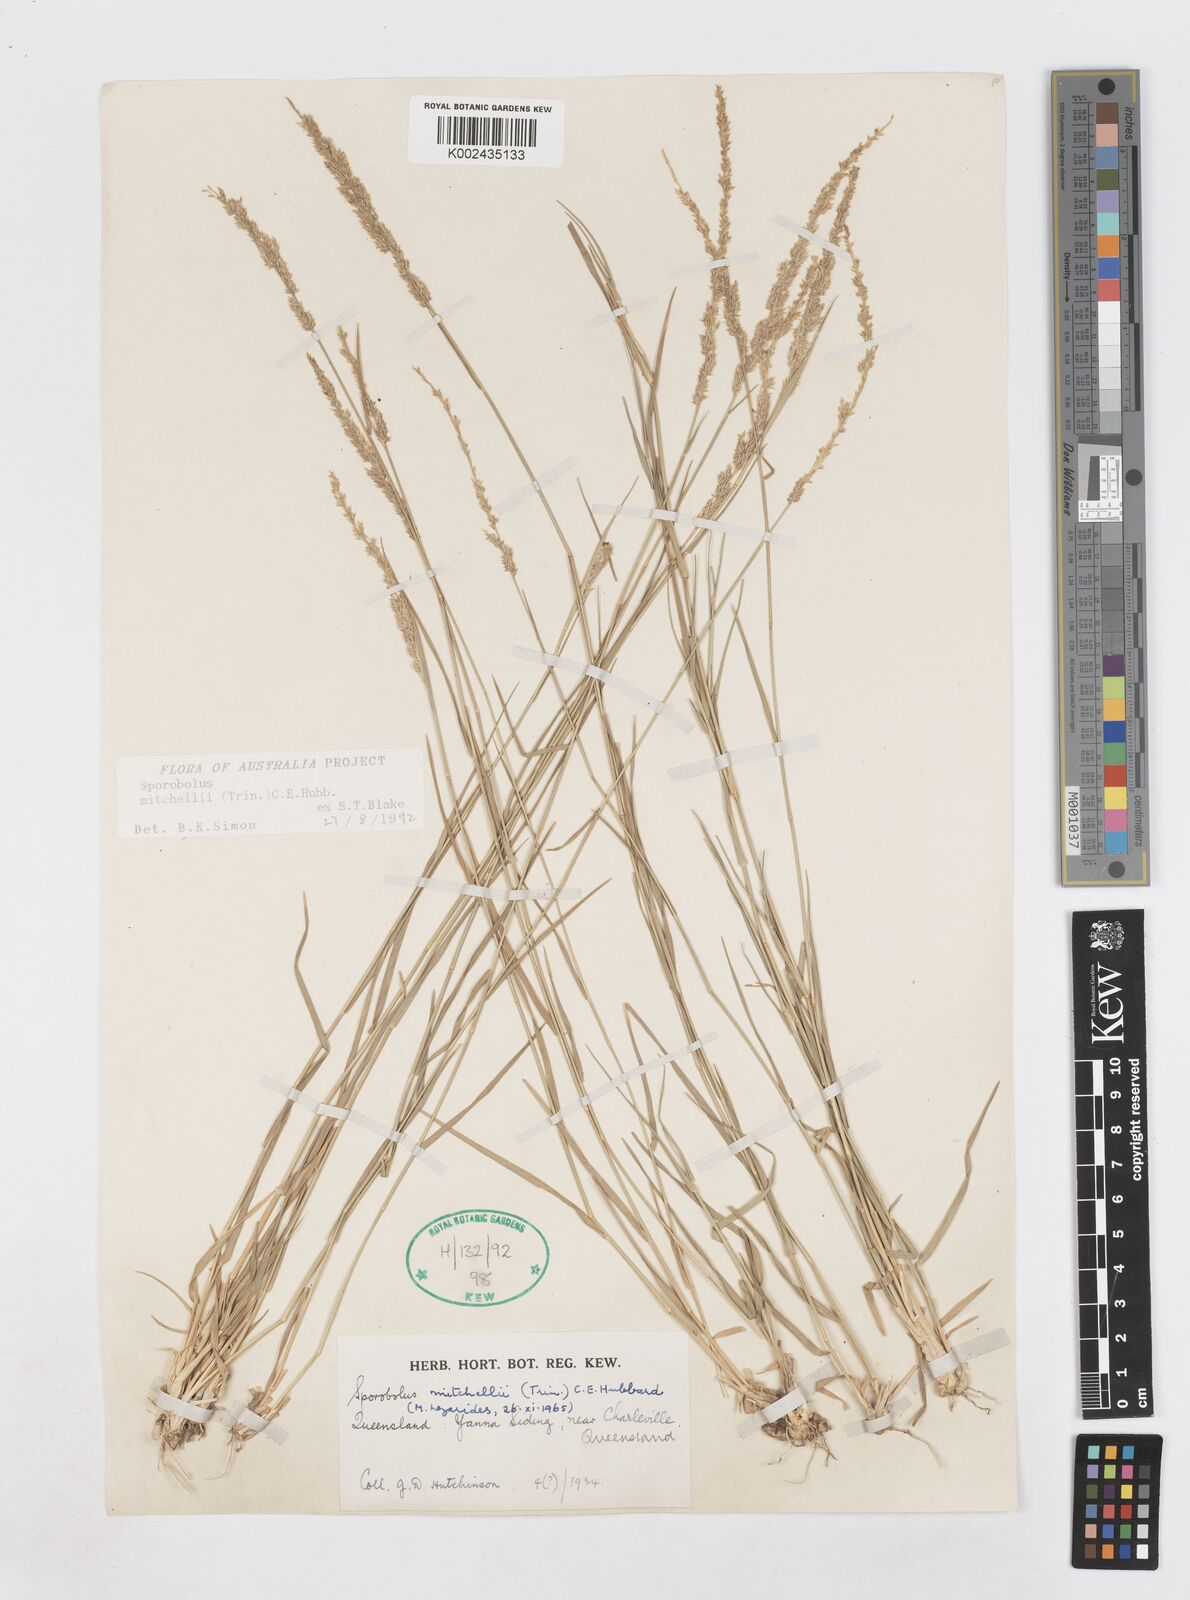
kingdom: Plantae
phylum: Tracheophyta
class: Liliopsida
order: Poales
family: Poaceae
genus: Sporobolus
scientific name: Sporobolus mitchellii
